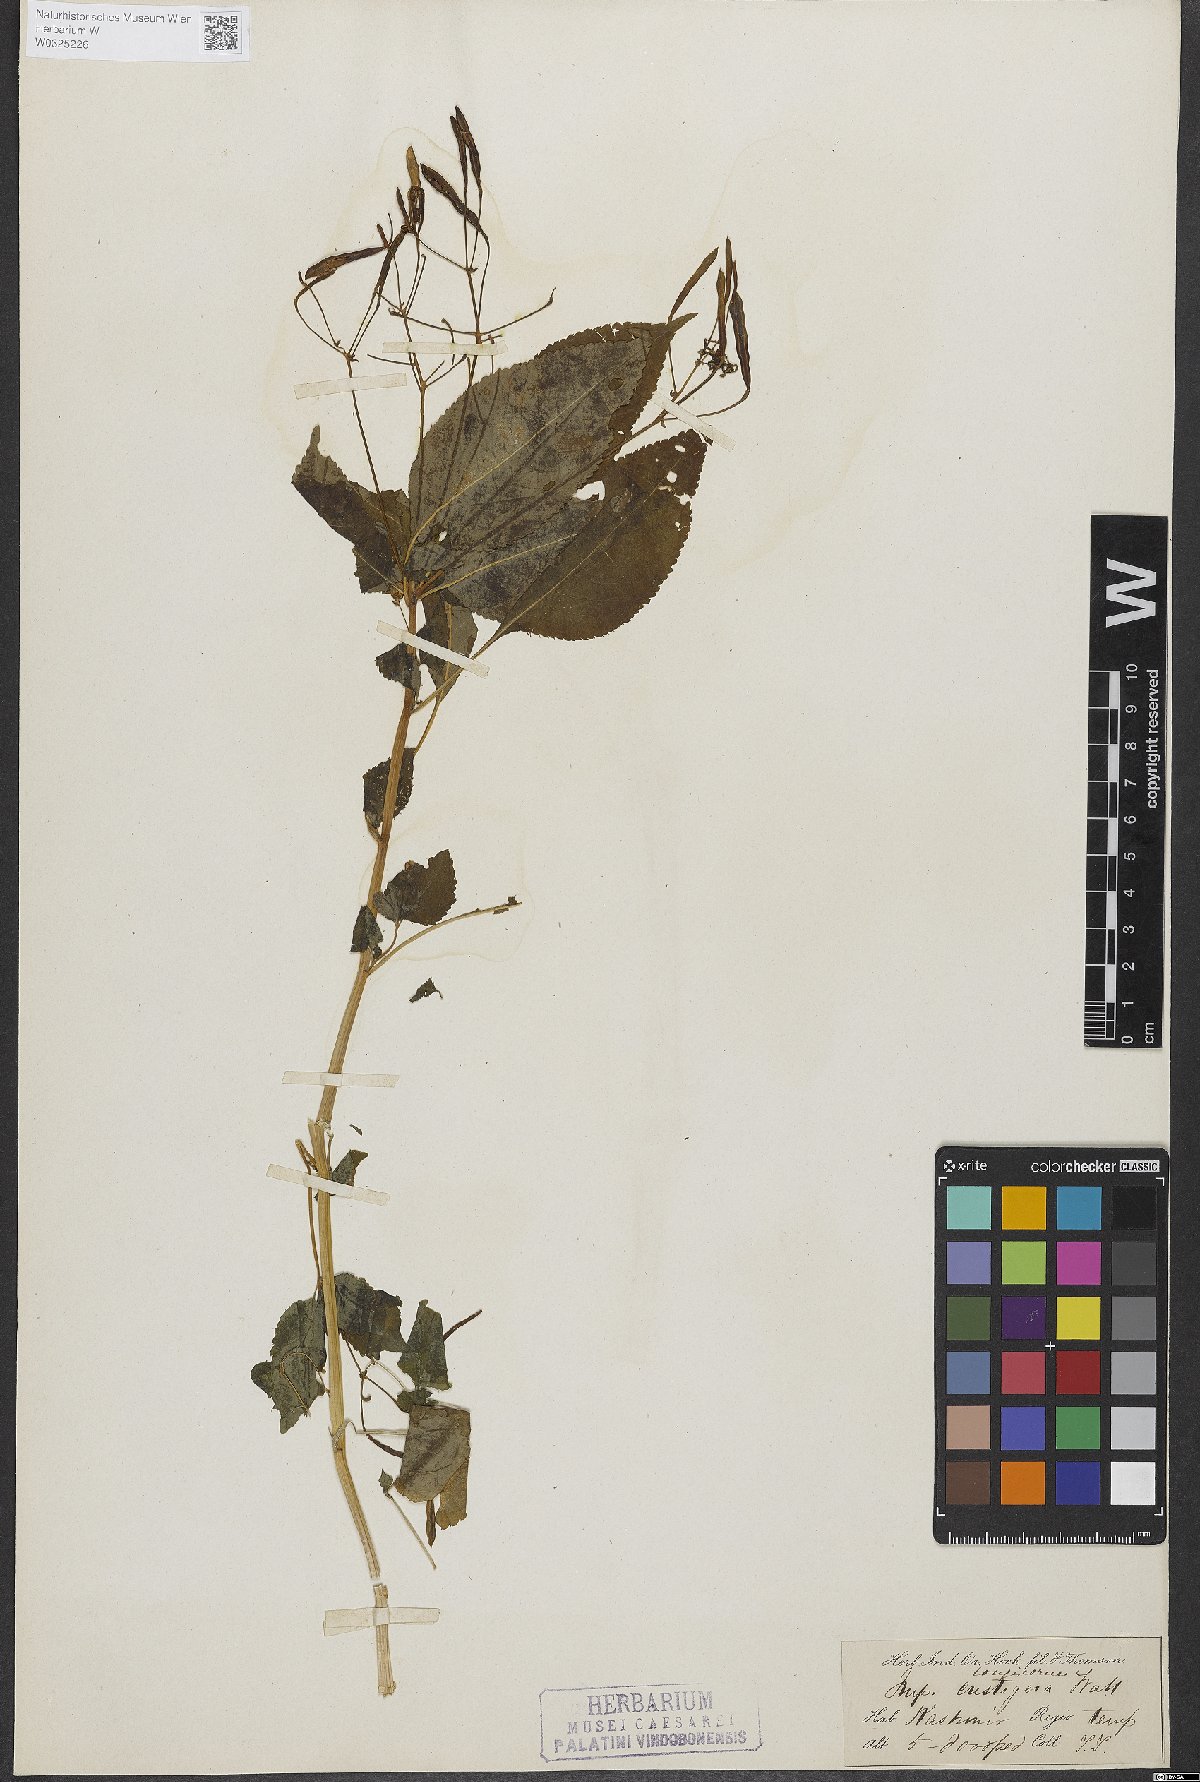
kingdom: Plantae
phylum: Tracheophyta
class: Magnoliopsida
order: Ericales
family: Balsaminaceae
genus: Impatiens
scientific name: Impatiens bicolor
